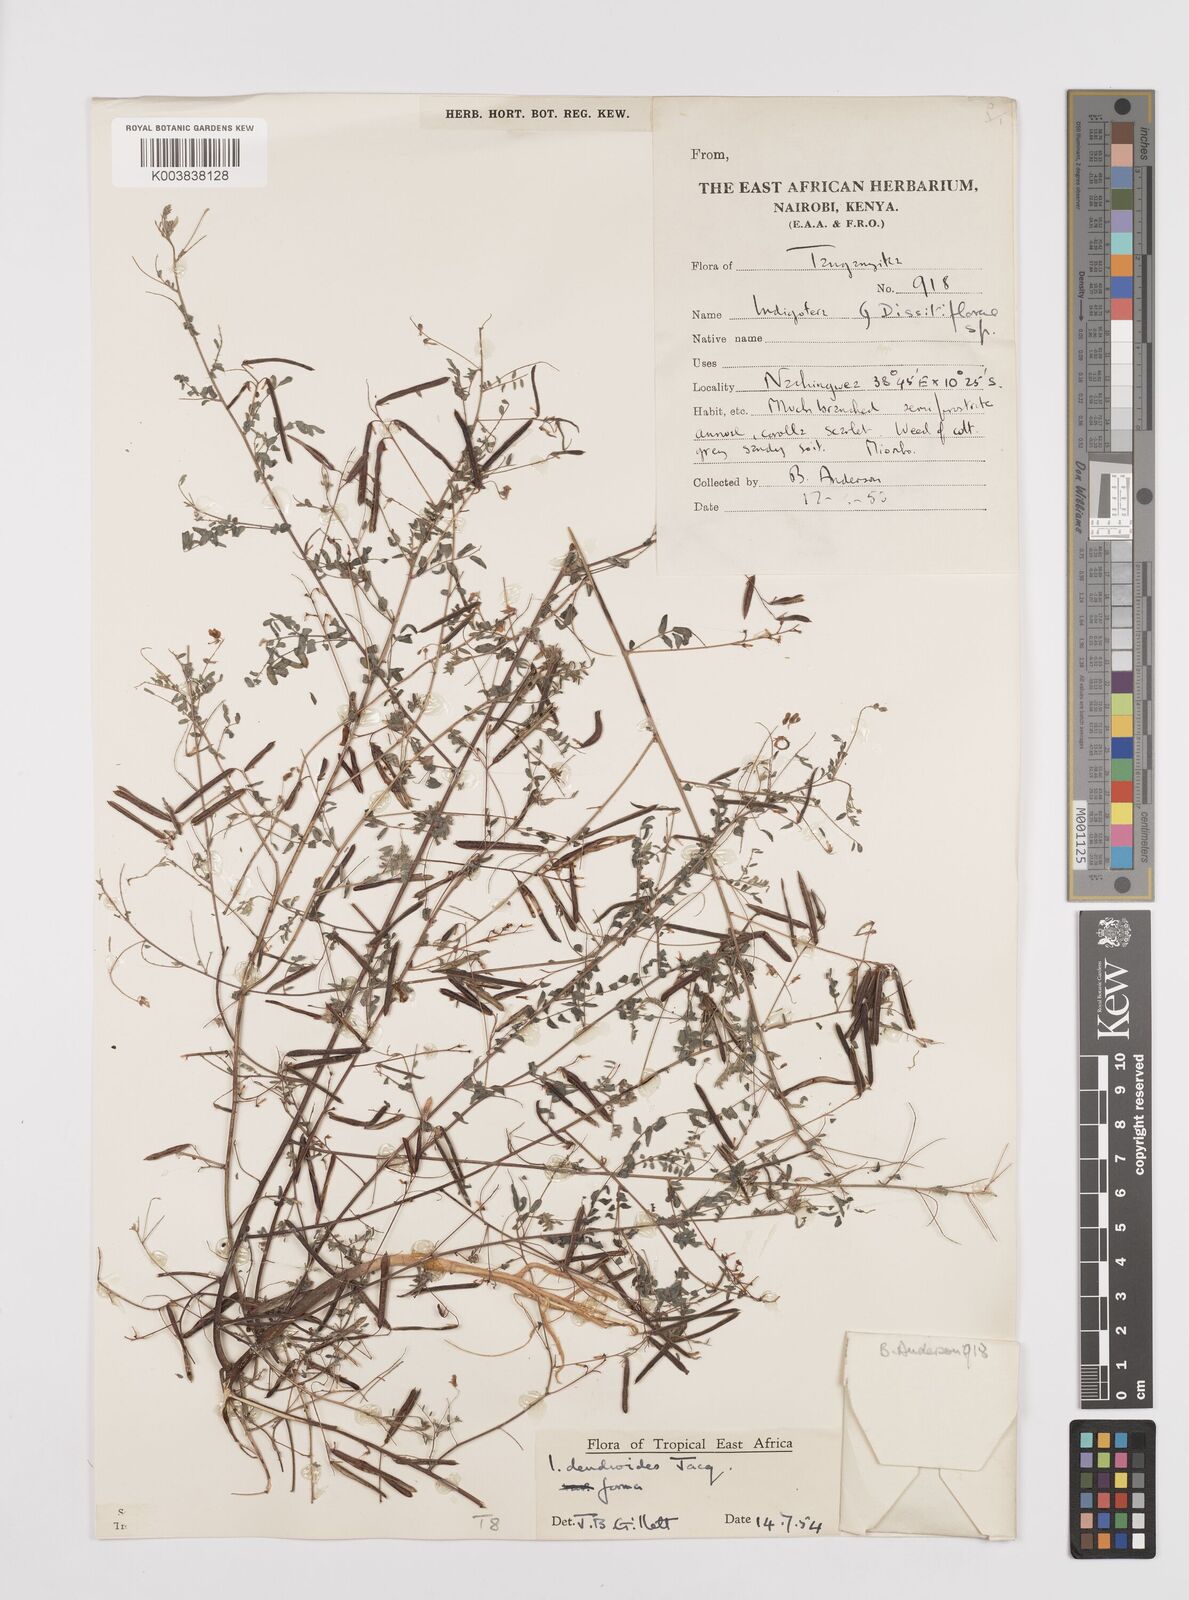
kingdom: Plantae
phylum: Tracheophyta
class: Magnoliopsida
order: Fabales
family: Fabaceae
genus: Indigofera
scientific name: Indigofera dendroides
